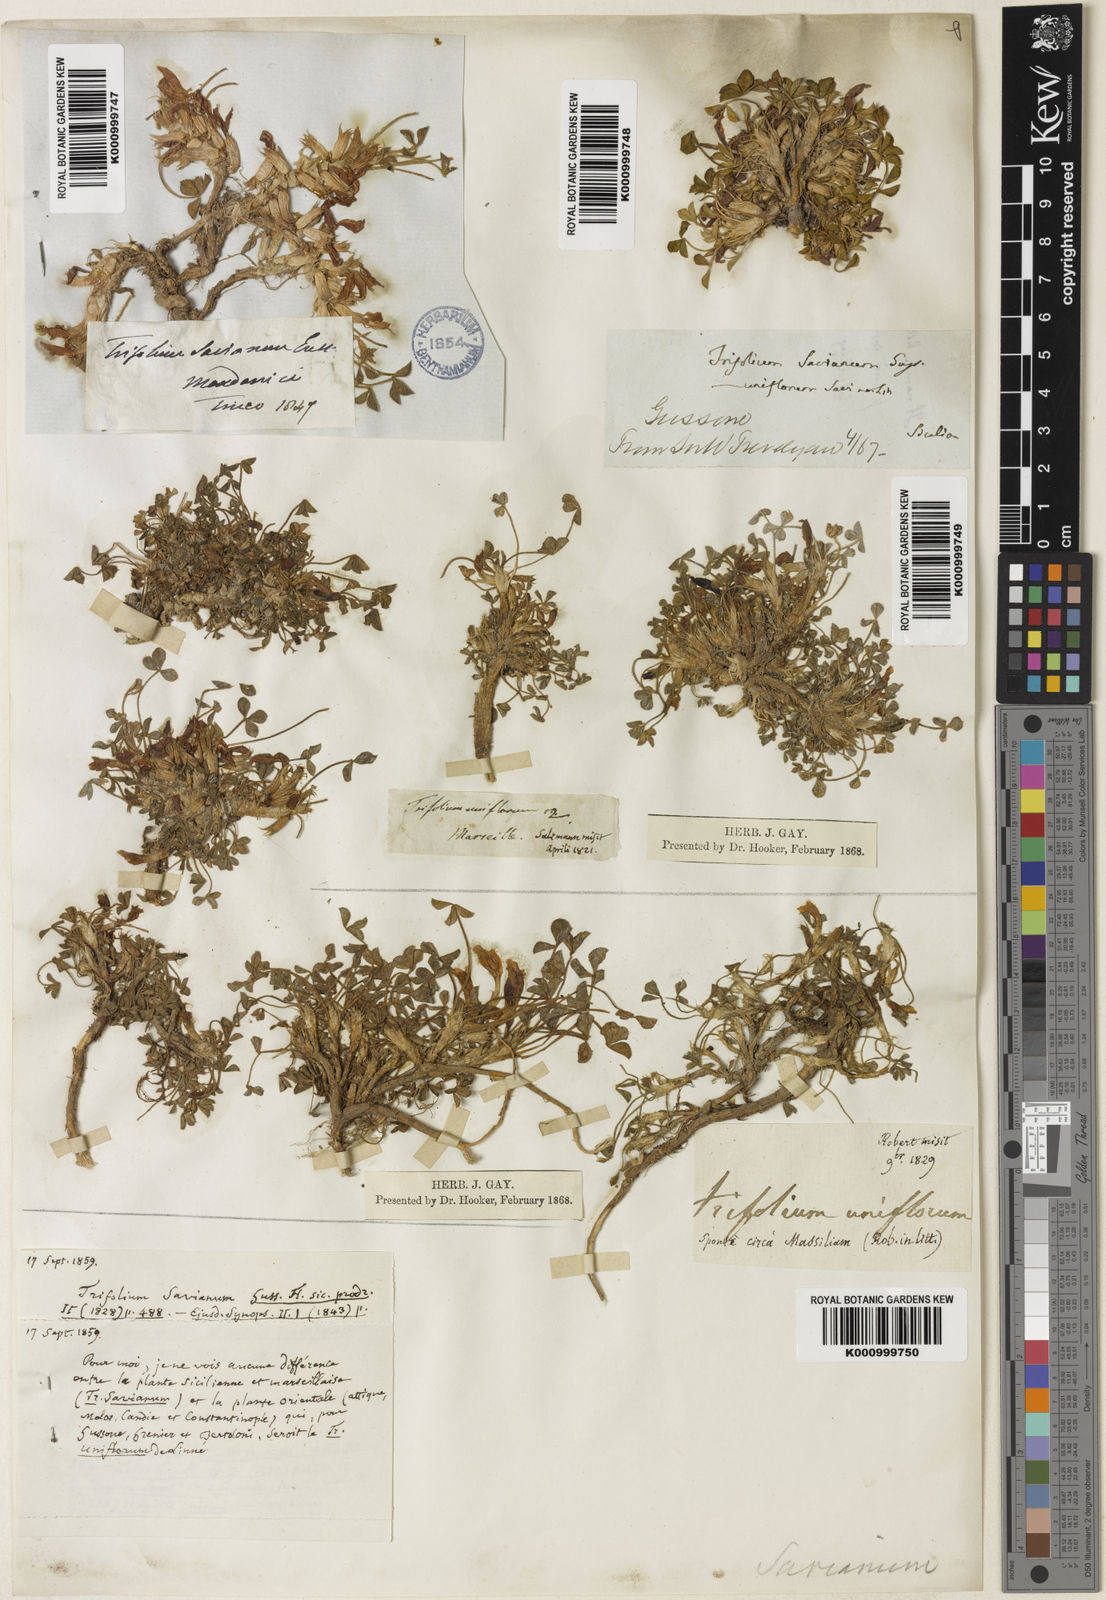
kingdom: Plantae
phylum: Tracheophyta
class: Magnoliopsida
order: Fabales
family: Fabaceae
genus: Trifolium
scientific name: Trifolium uniflorum
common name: One-flower clover
